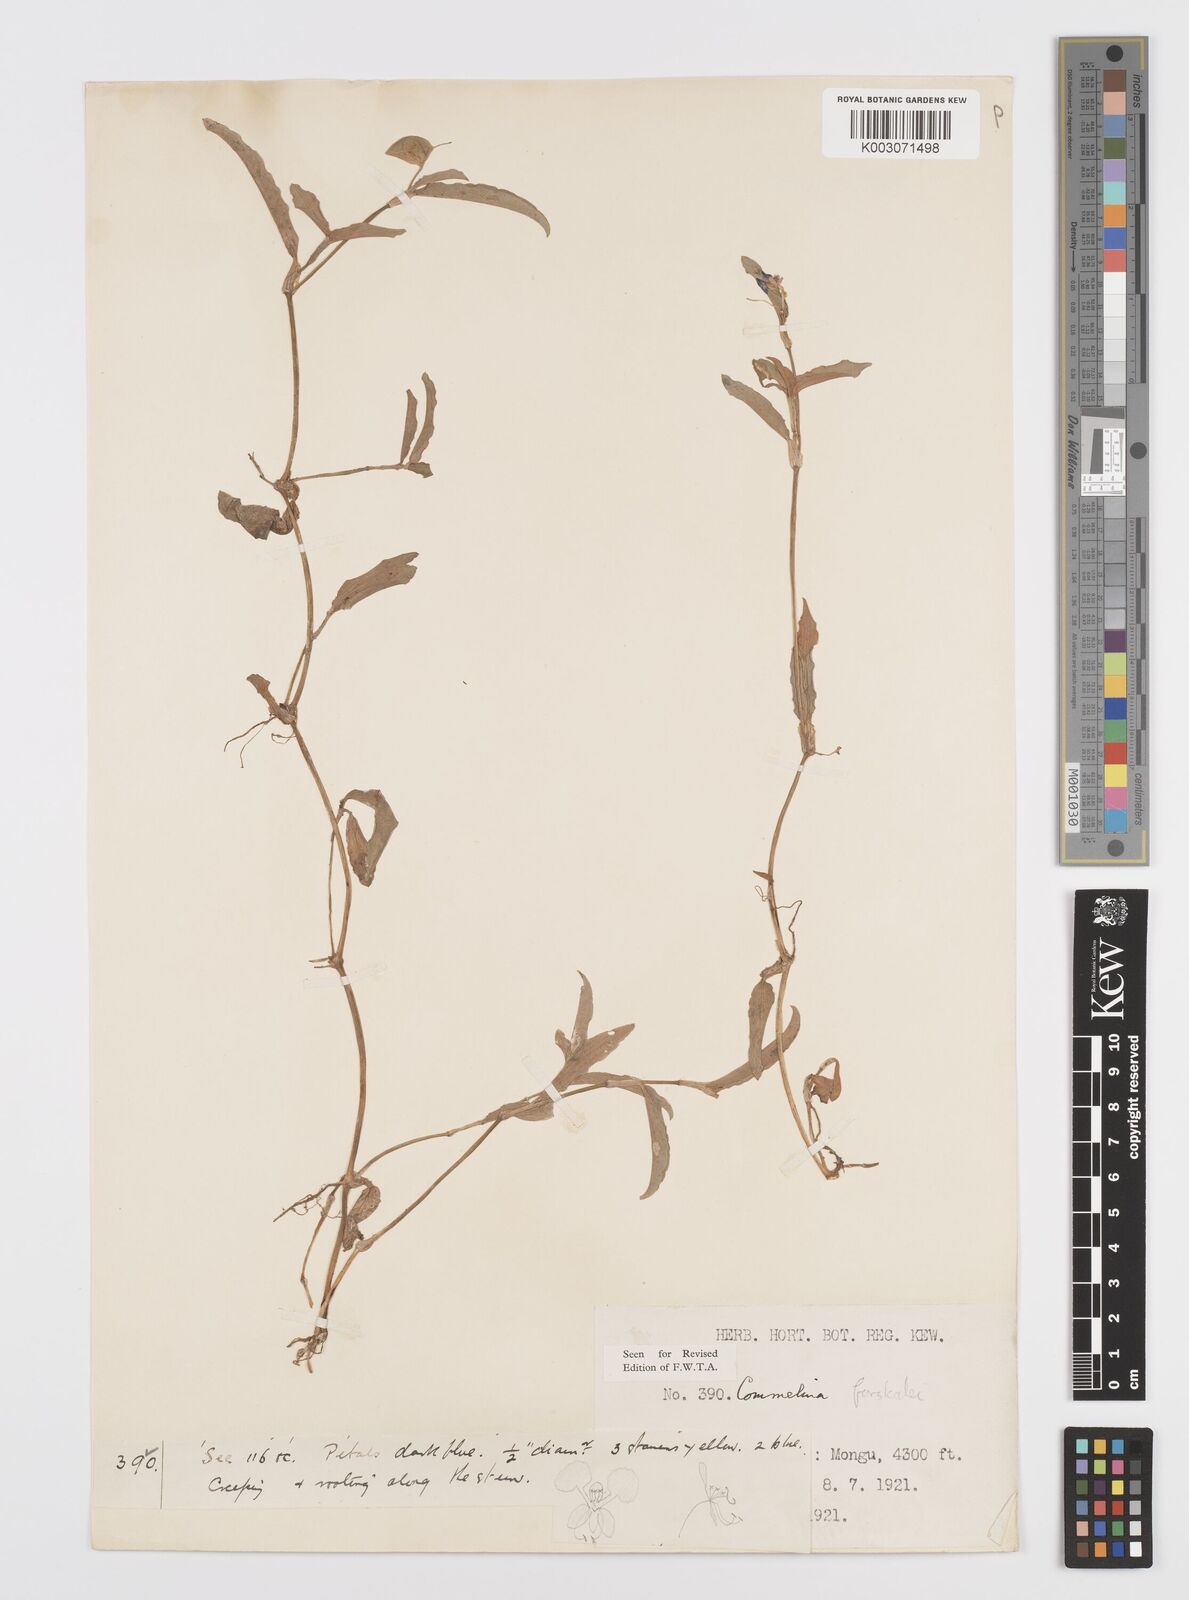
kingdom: Plantae
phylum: Tracheophyta
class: Liliopsida
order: Commelinales
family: Commelinaceae
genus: Commelina
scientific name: Commelina forskaolii
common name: Rat's ear
